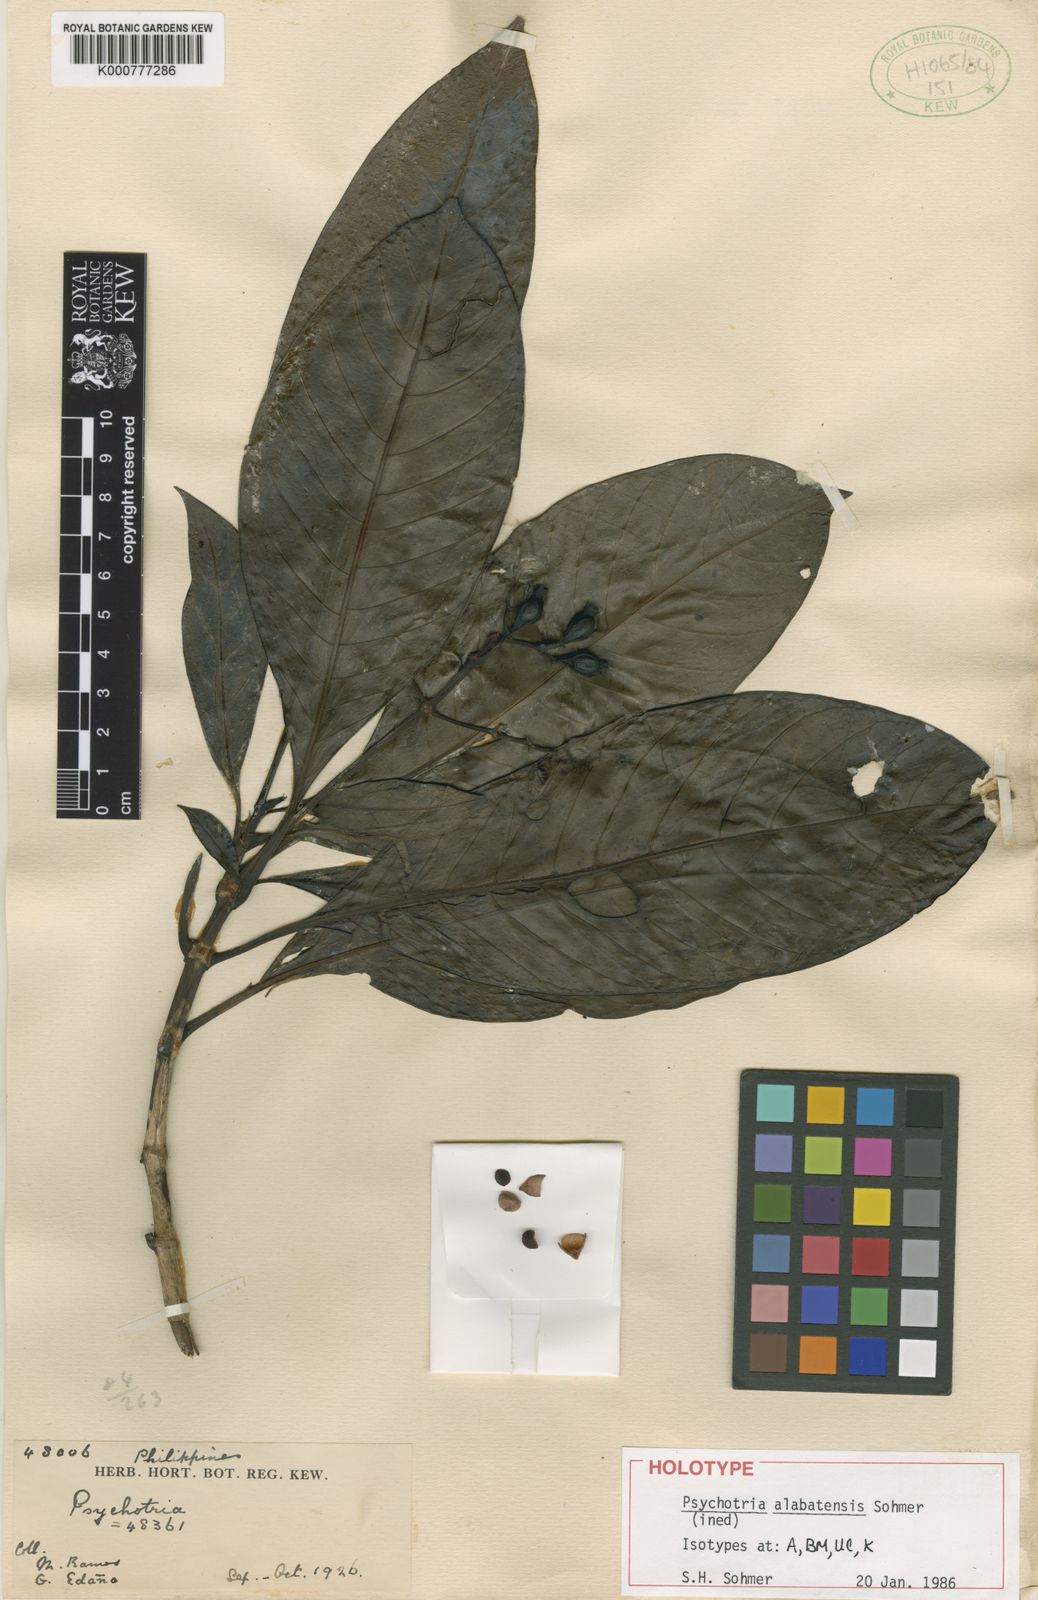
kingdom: Plantae
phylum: Tracheophyta
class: Magnoliopsida
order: Gentianales
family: Rubiaceae
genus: Psychotria
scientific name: Psychotria alabatensis
